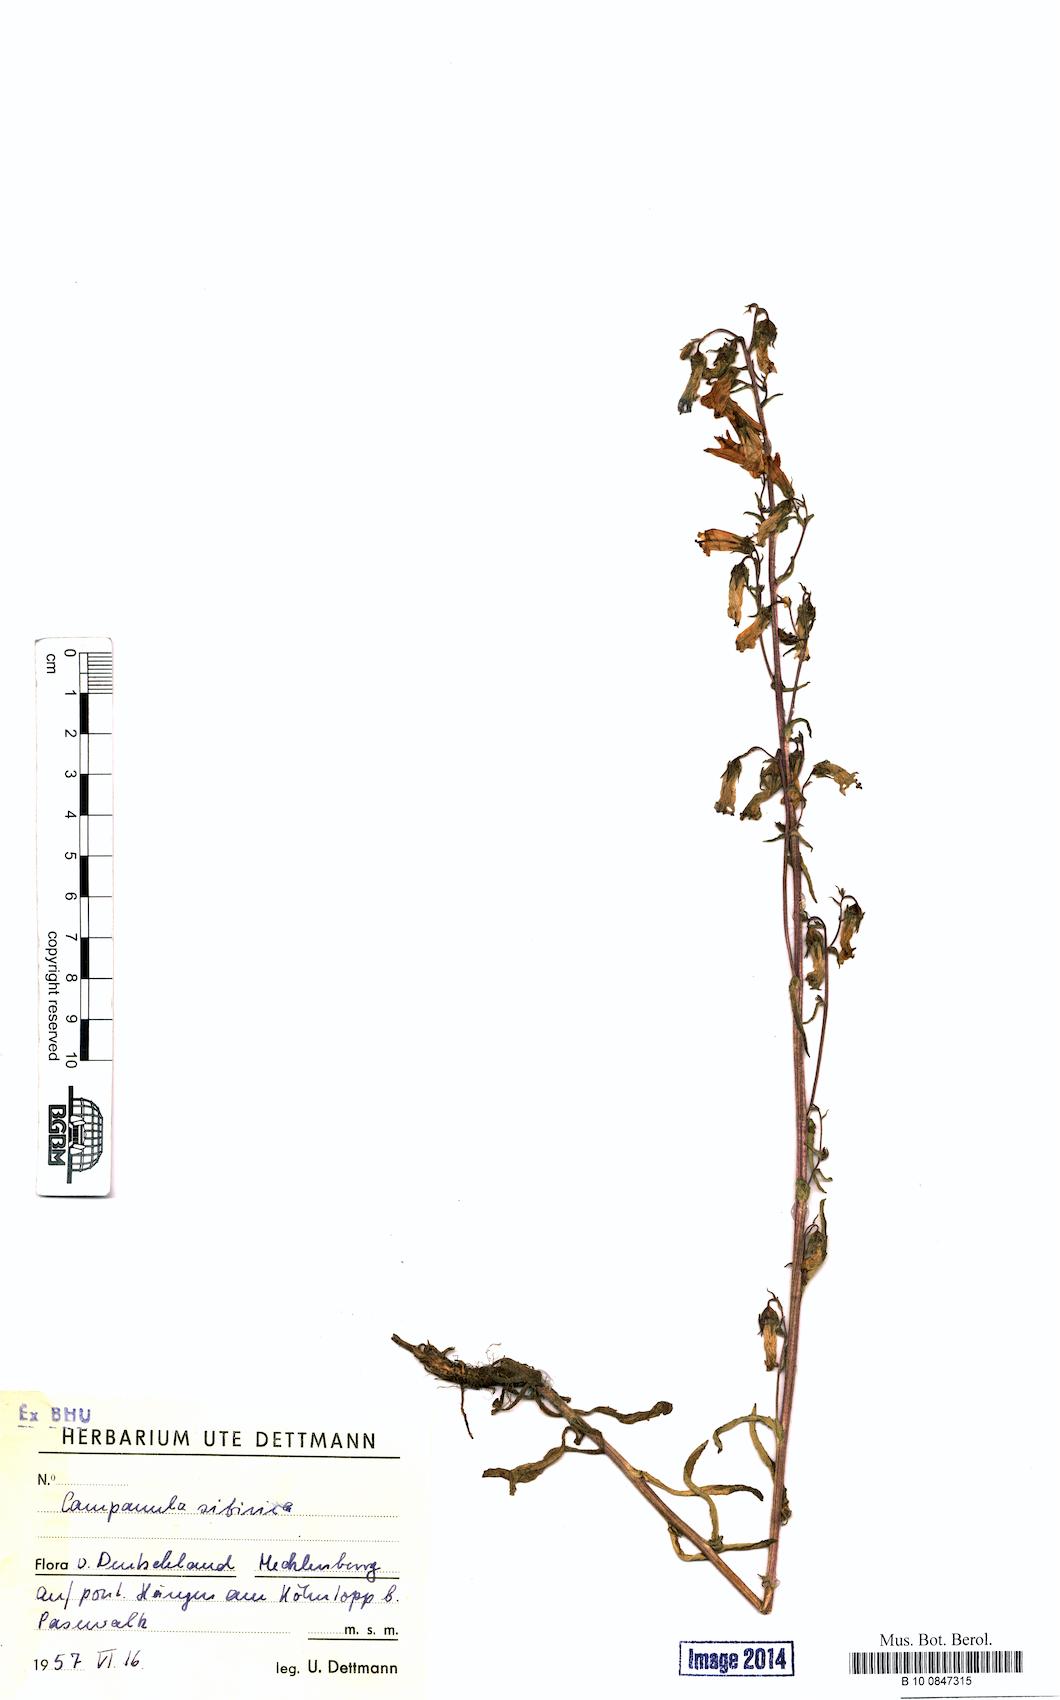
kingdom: Plantae
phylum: Tracheophyta
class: Magnoliopsida
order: Asterales
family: Campanulaceae
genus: Campanula
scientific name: Campanula sibirica
